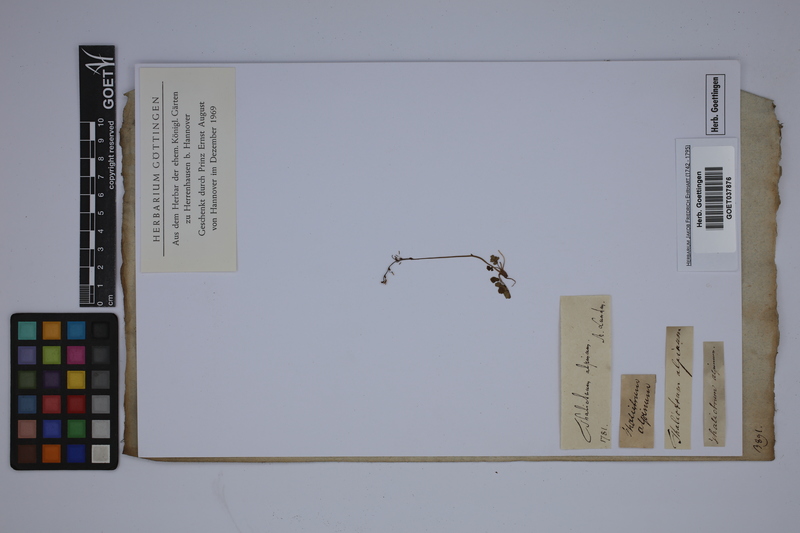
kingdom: Plantae
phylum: Tracheophyta
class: Magnoliopsida
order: Ranunculales
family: Ranunculaceae
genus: Thalictrum
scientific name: Thalictrum alpinum
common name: Alpine meadow-rue
